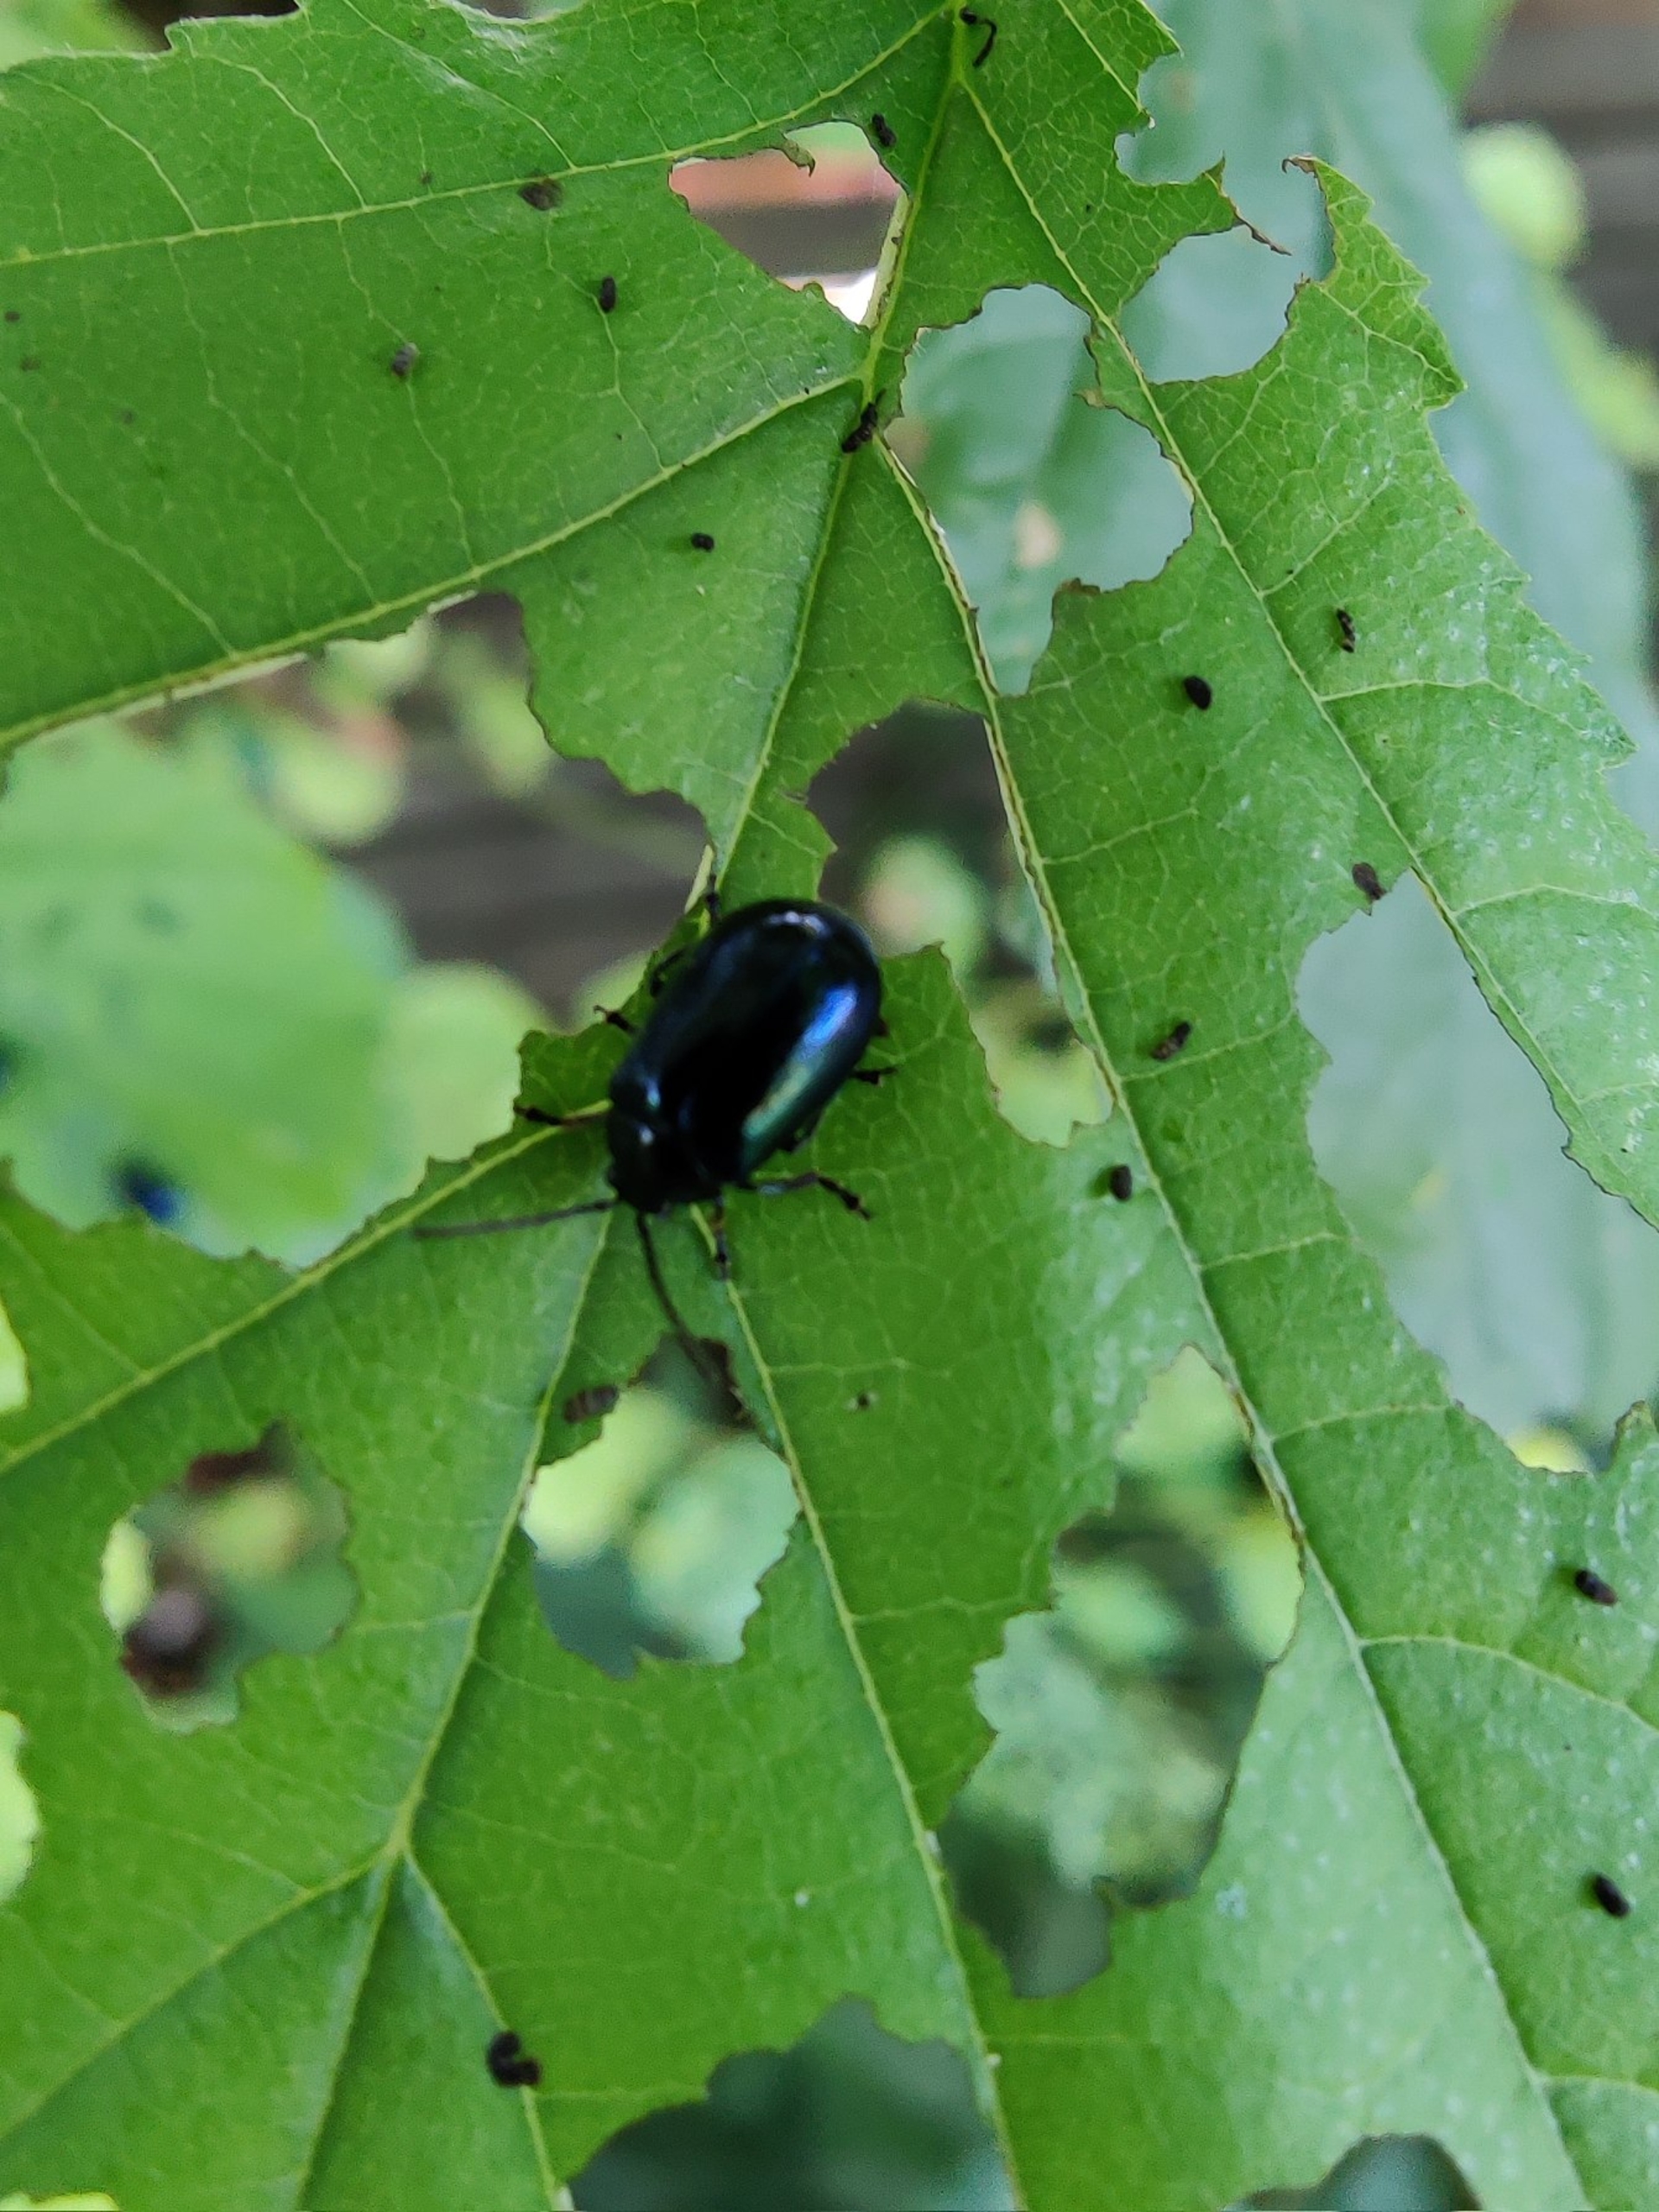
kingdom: Animalia
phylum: Arthropoda
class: Insecta
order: Coleoptera
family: Chrysomelidae
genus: Agelastica
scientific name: Agelastica alni
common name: Ellebladbille
